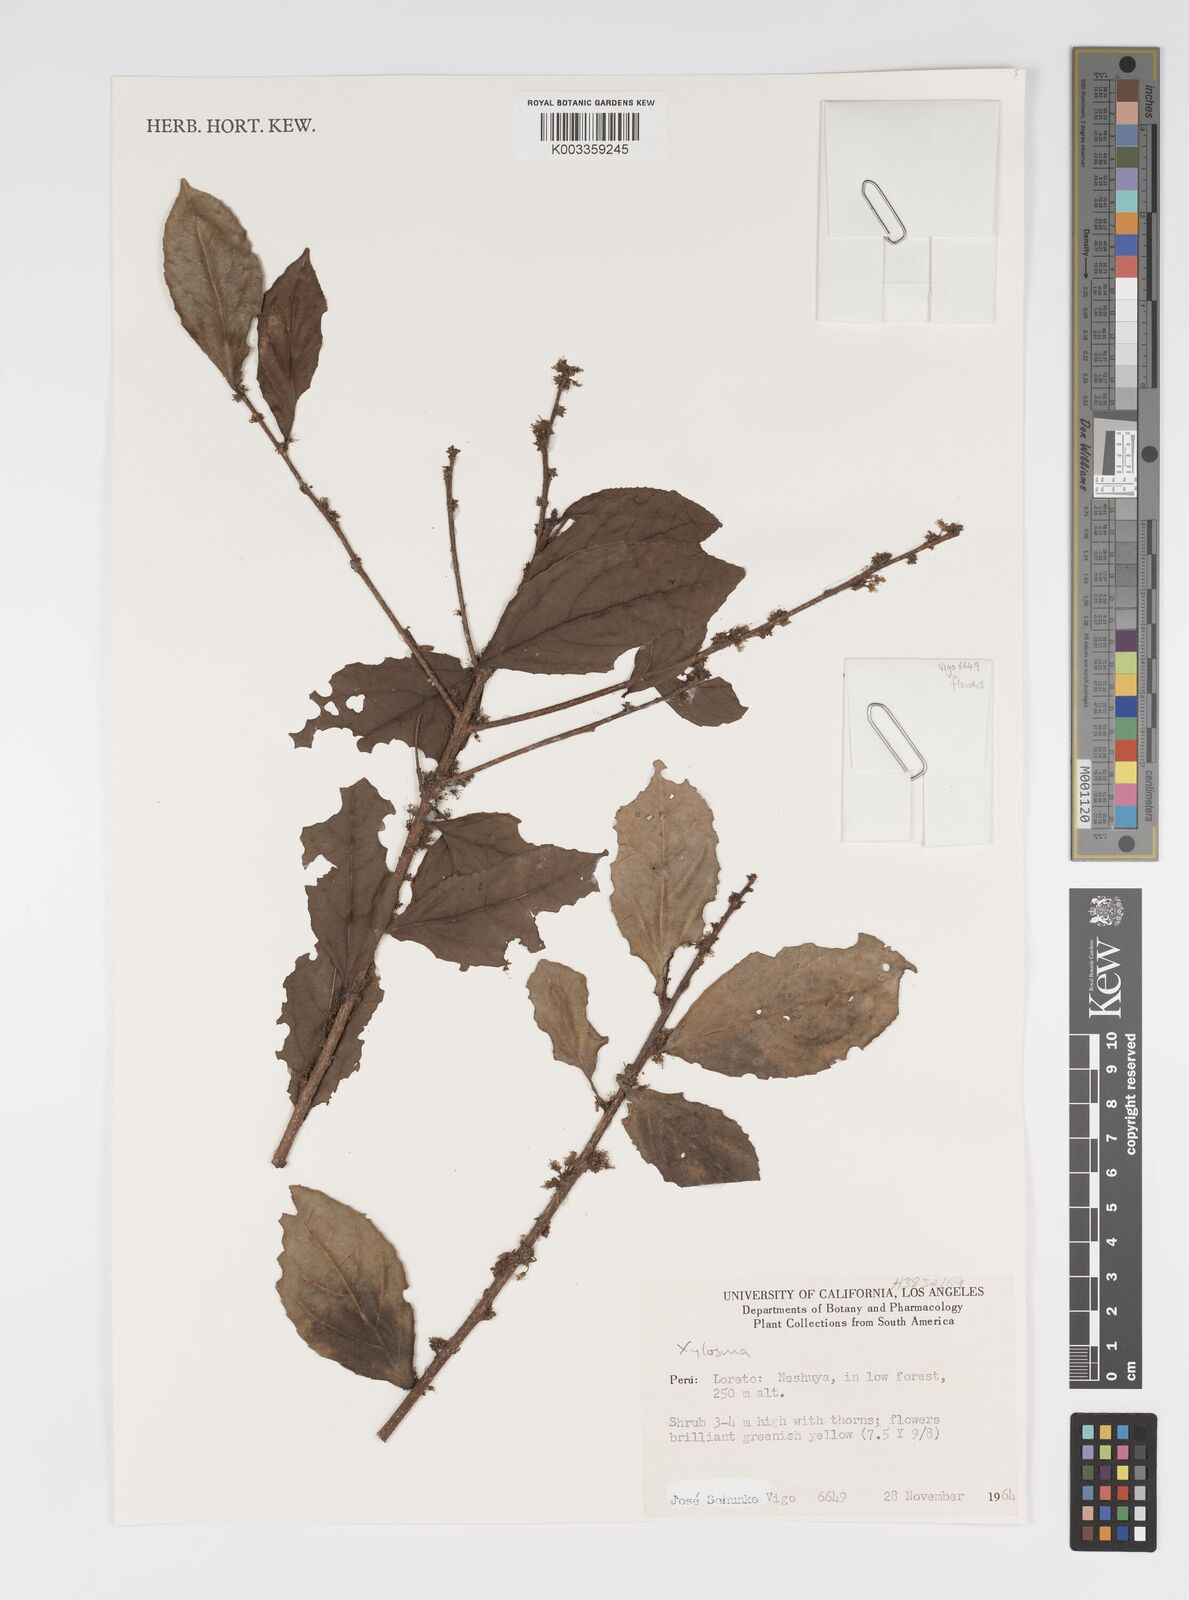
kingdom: Plantae
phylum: Tracheophyta
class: Magnoliopsida
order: Malpighiales
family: Salicaceae
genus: Xylosma
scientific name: Xylosma
